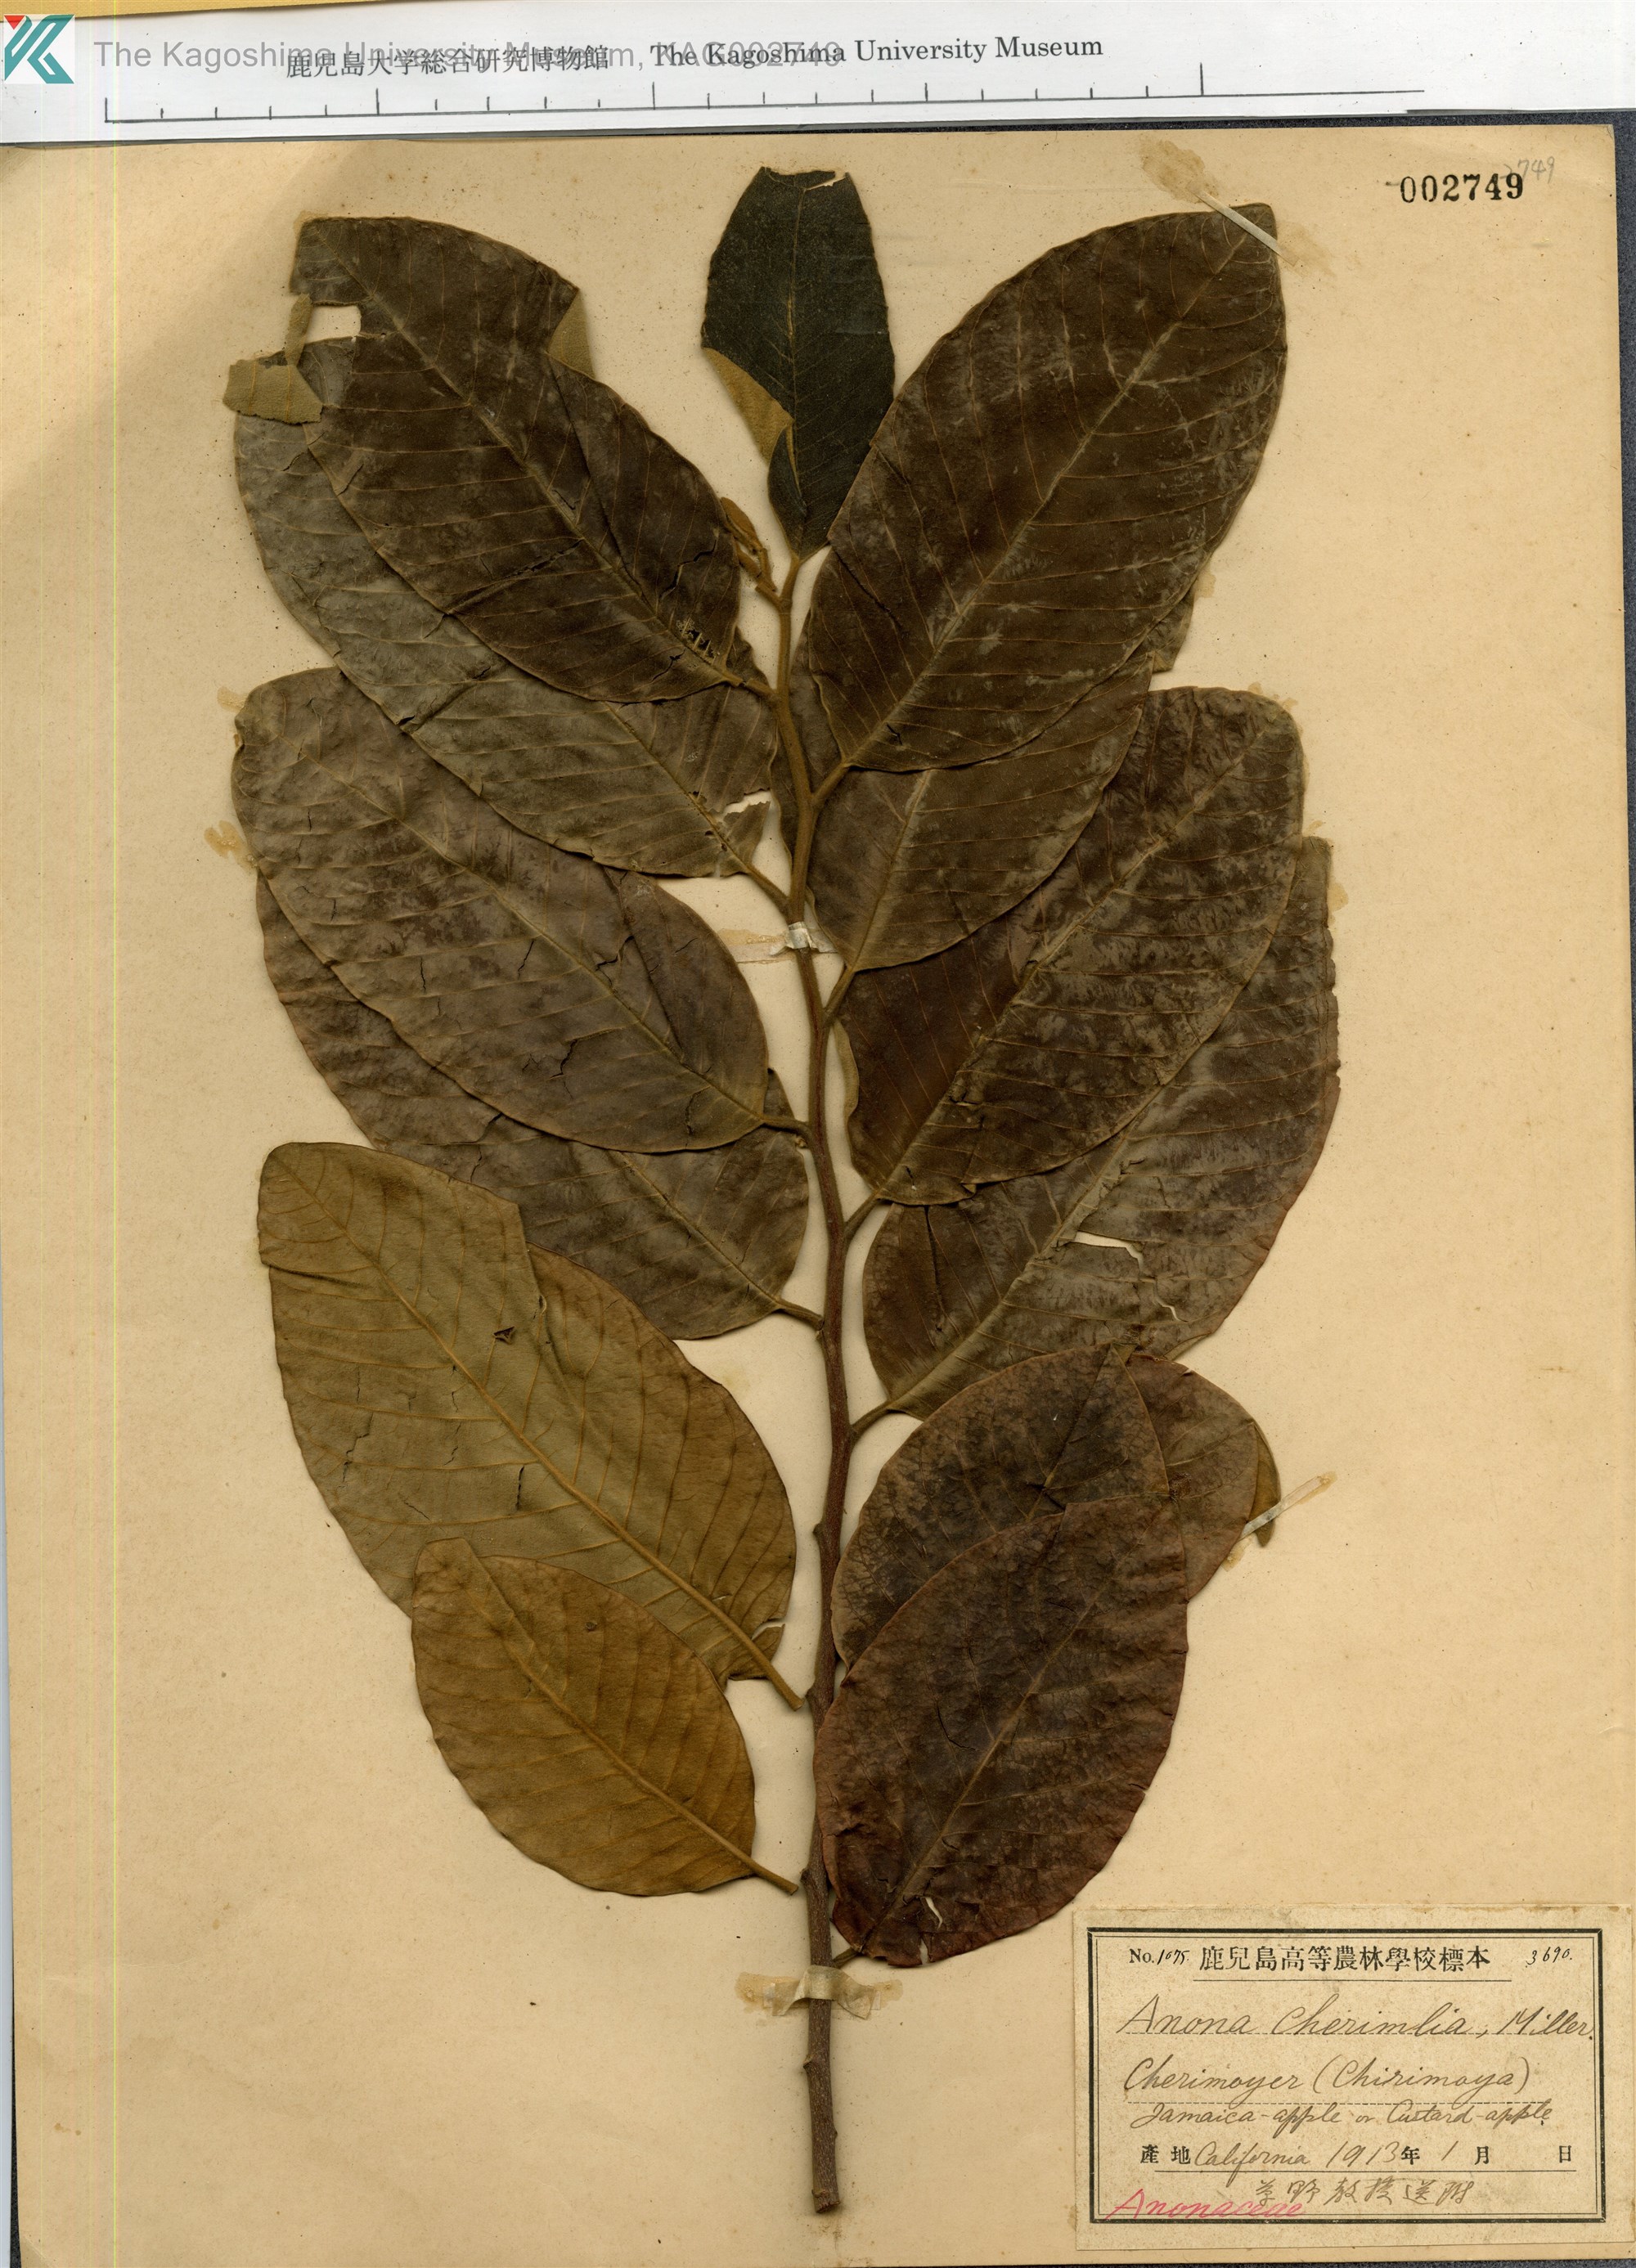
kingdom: Plantae
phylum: Tracheophyta
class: Magnoliopsida
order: Magnoliales
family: Annonaceae
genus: Annona
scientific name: Annona cherimola
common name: Cherimoya
